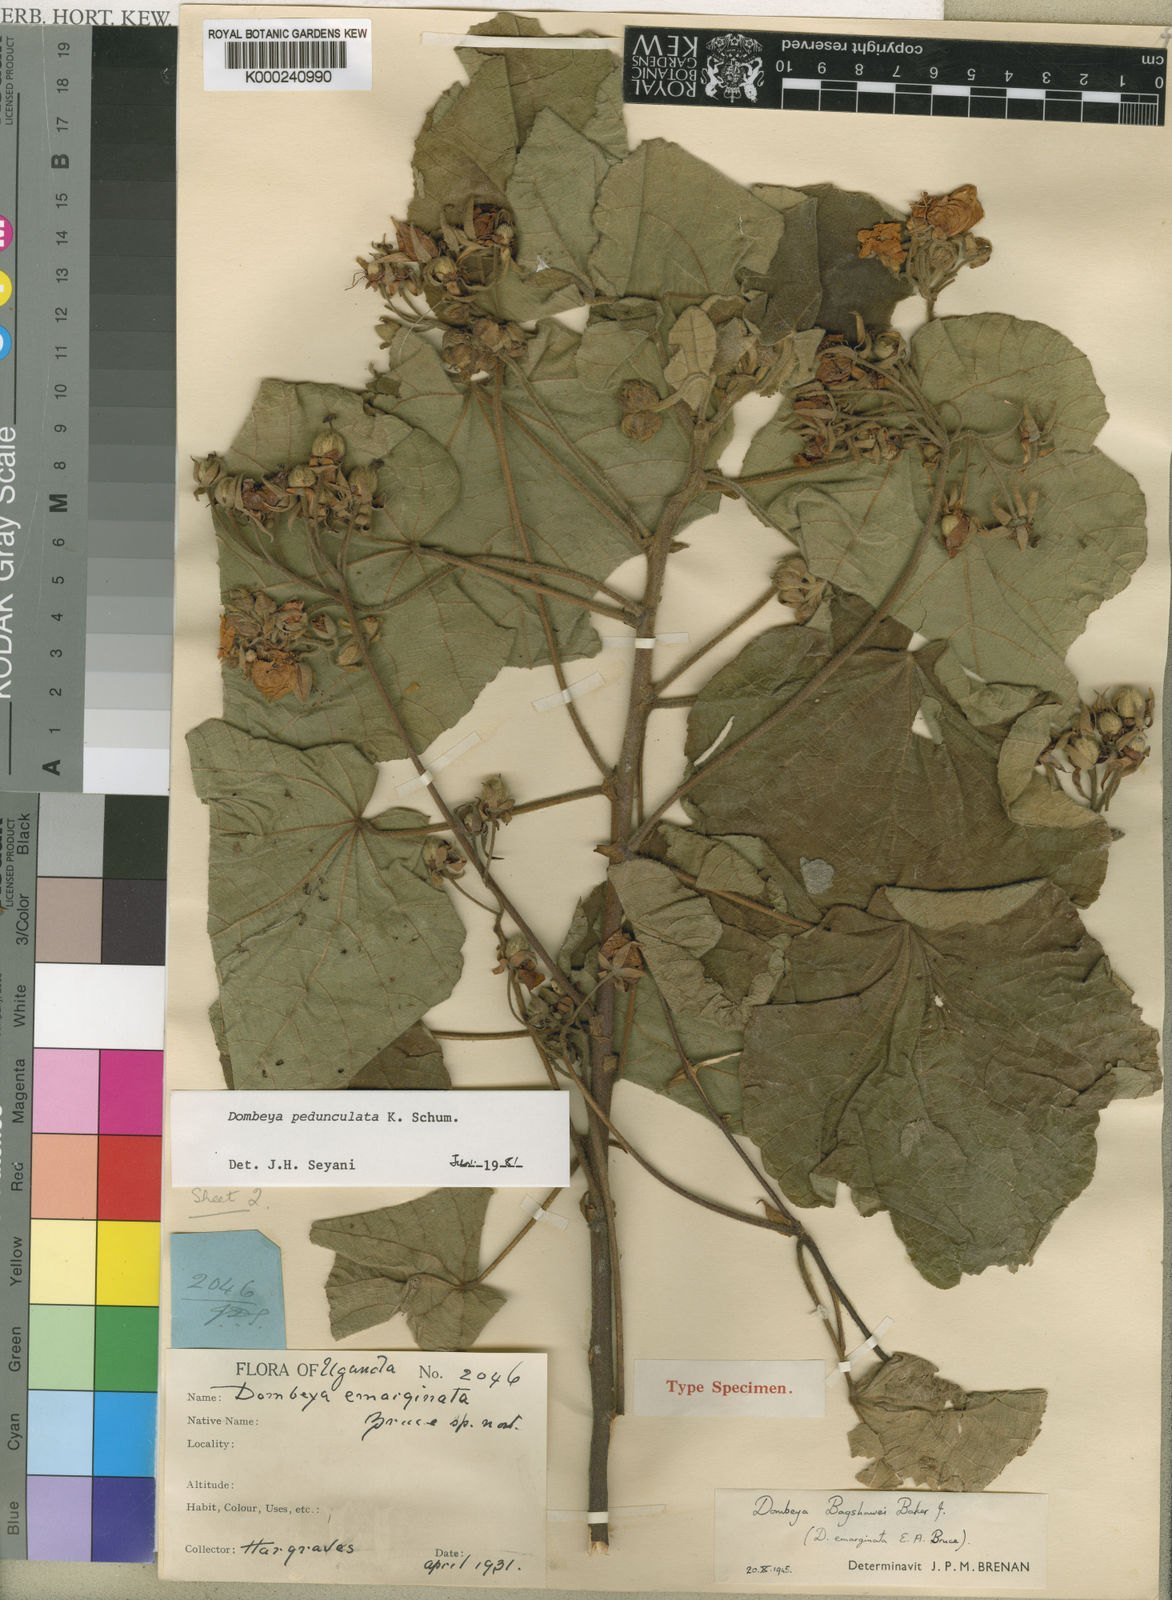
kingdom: Plantae
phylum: Tracheophyta
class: Magnoliopsida
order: Malvales
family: Malvaceae
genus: Dombeya
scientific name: Dombeya buettneri
